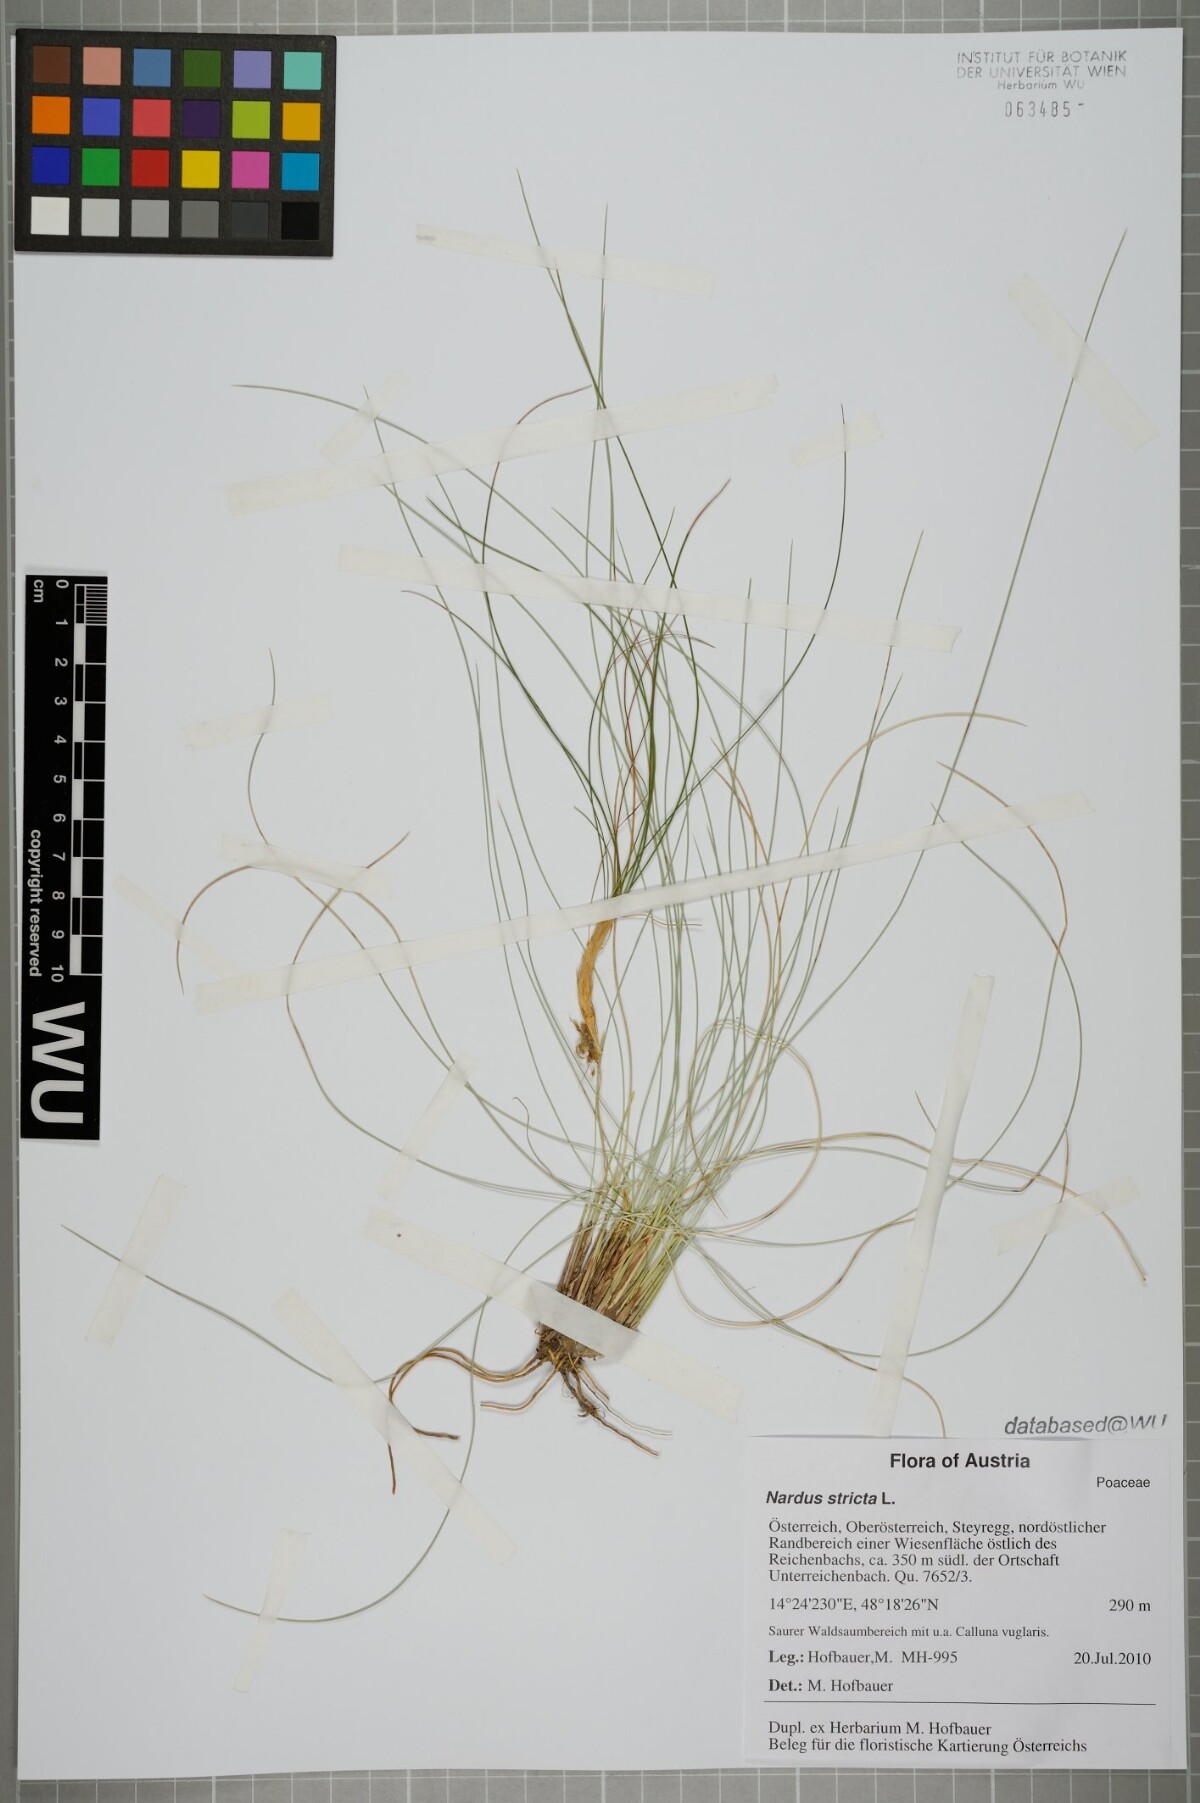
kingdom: Plantae
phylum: Tracheophyta
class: Liliopsida
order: Poales
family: Poaceae
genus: Nardus
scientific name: Nardus stricta
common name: Mat-grass
